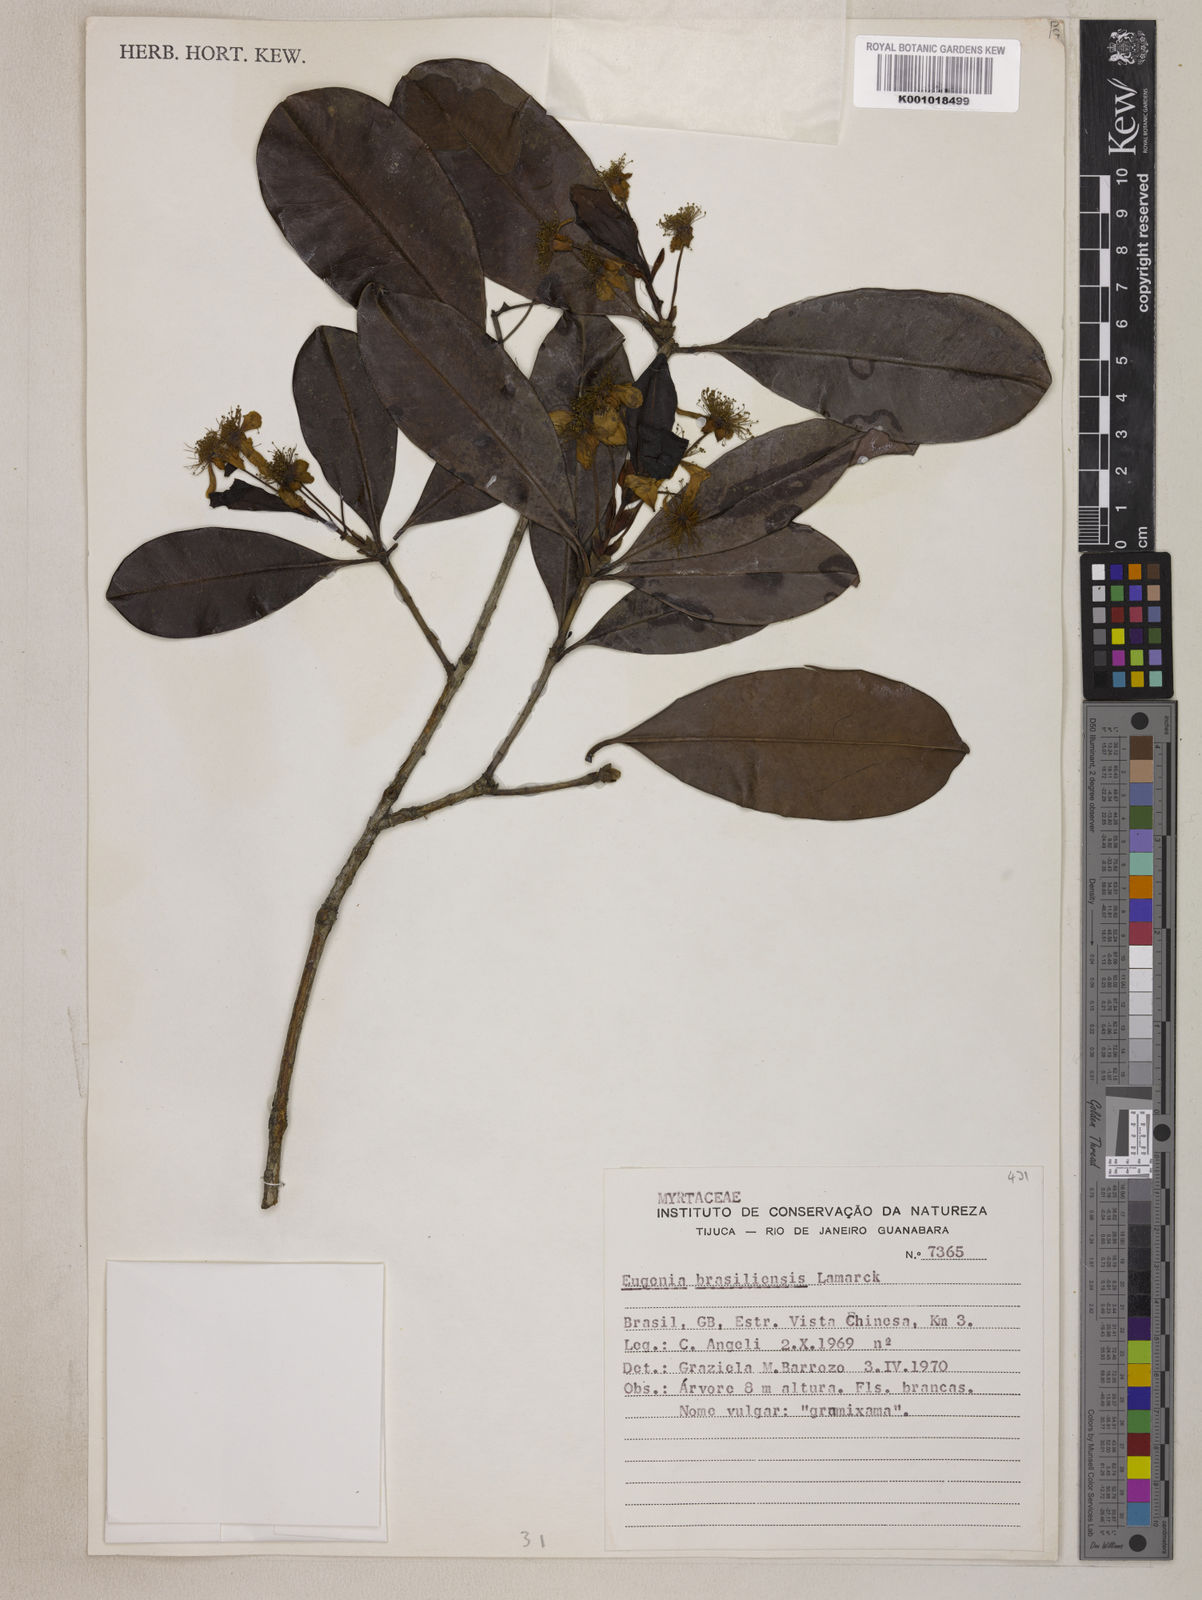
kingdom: Plantae
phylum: Tracheophyta
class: Magnoliopsida
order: Myrtales
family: Myrtaceae
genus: Eugenia
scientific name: Eugenia brasiliensis
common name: Grumichama
